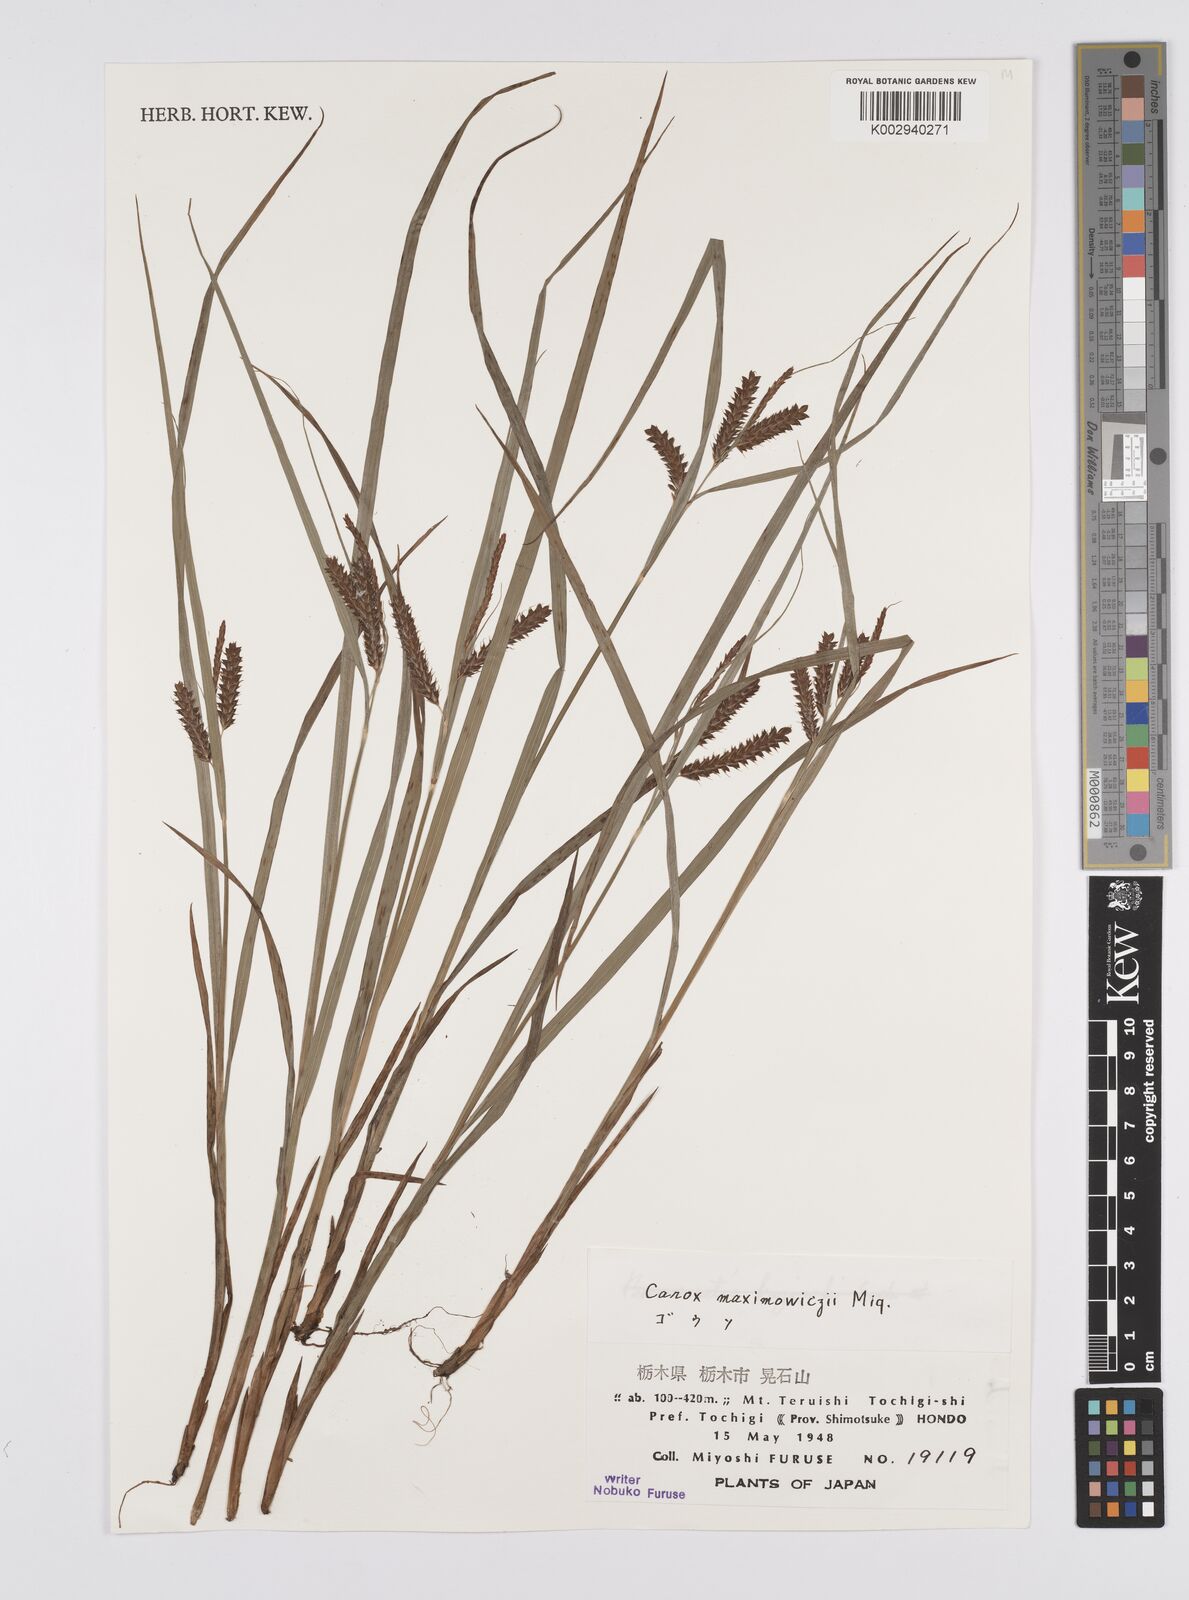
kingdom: Plantae
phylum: Tracheophyta
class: Liliopsida
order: Poales
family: Cyperaceae
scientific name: Cyperaceae
